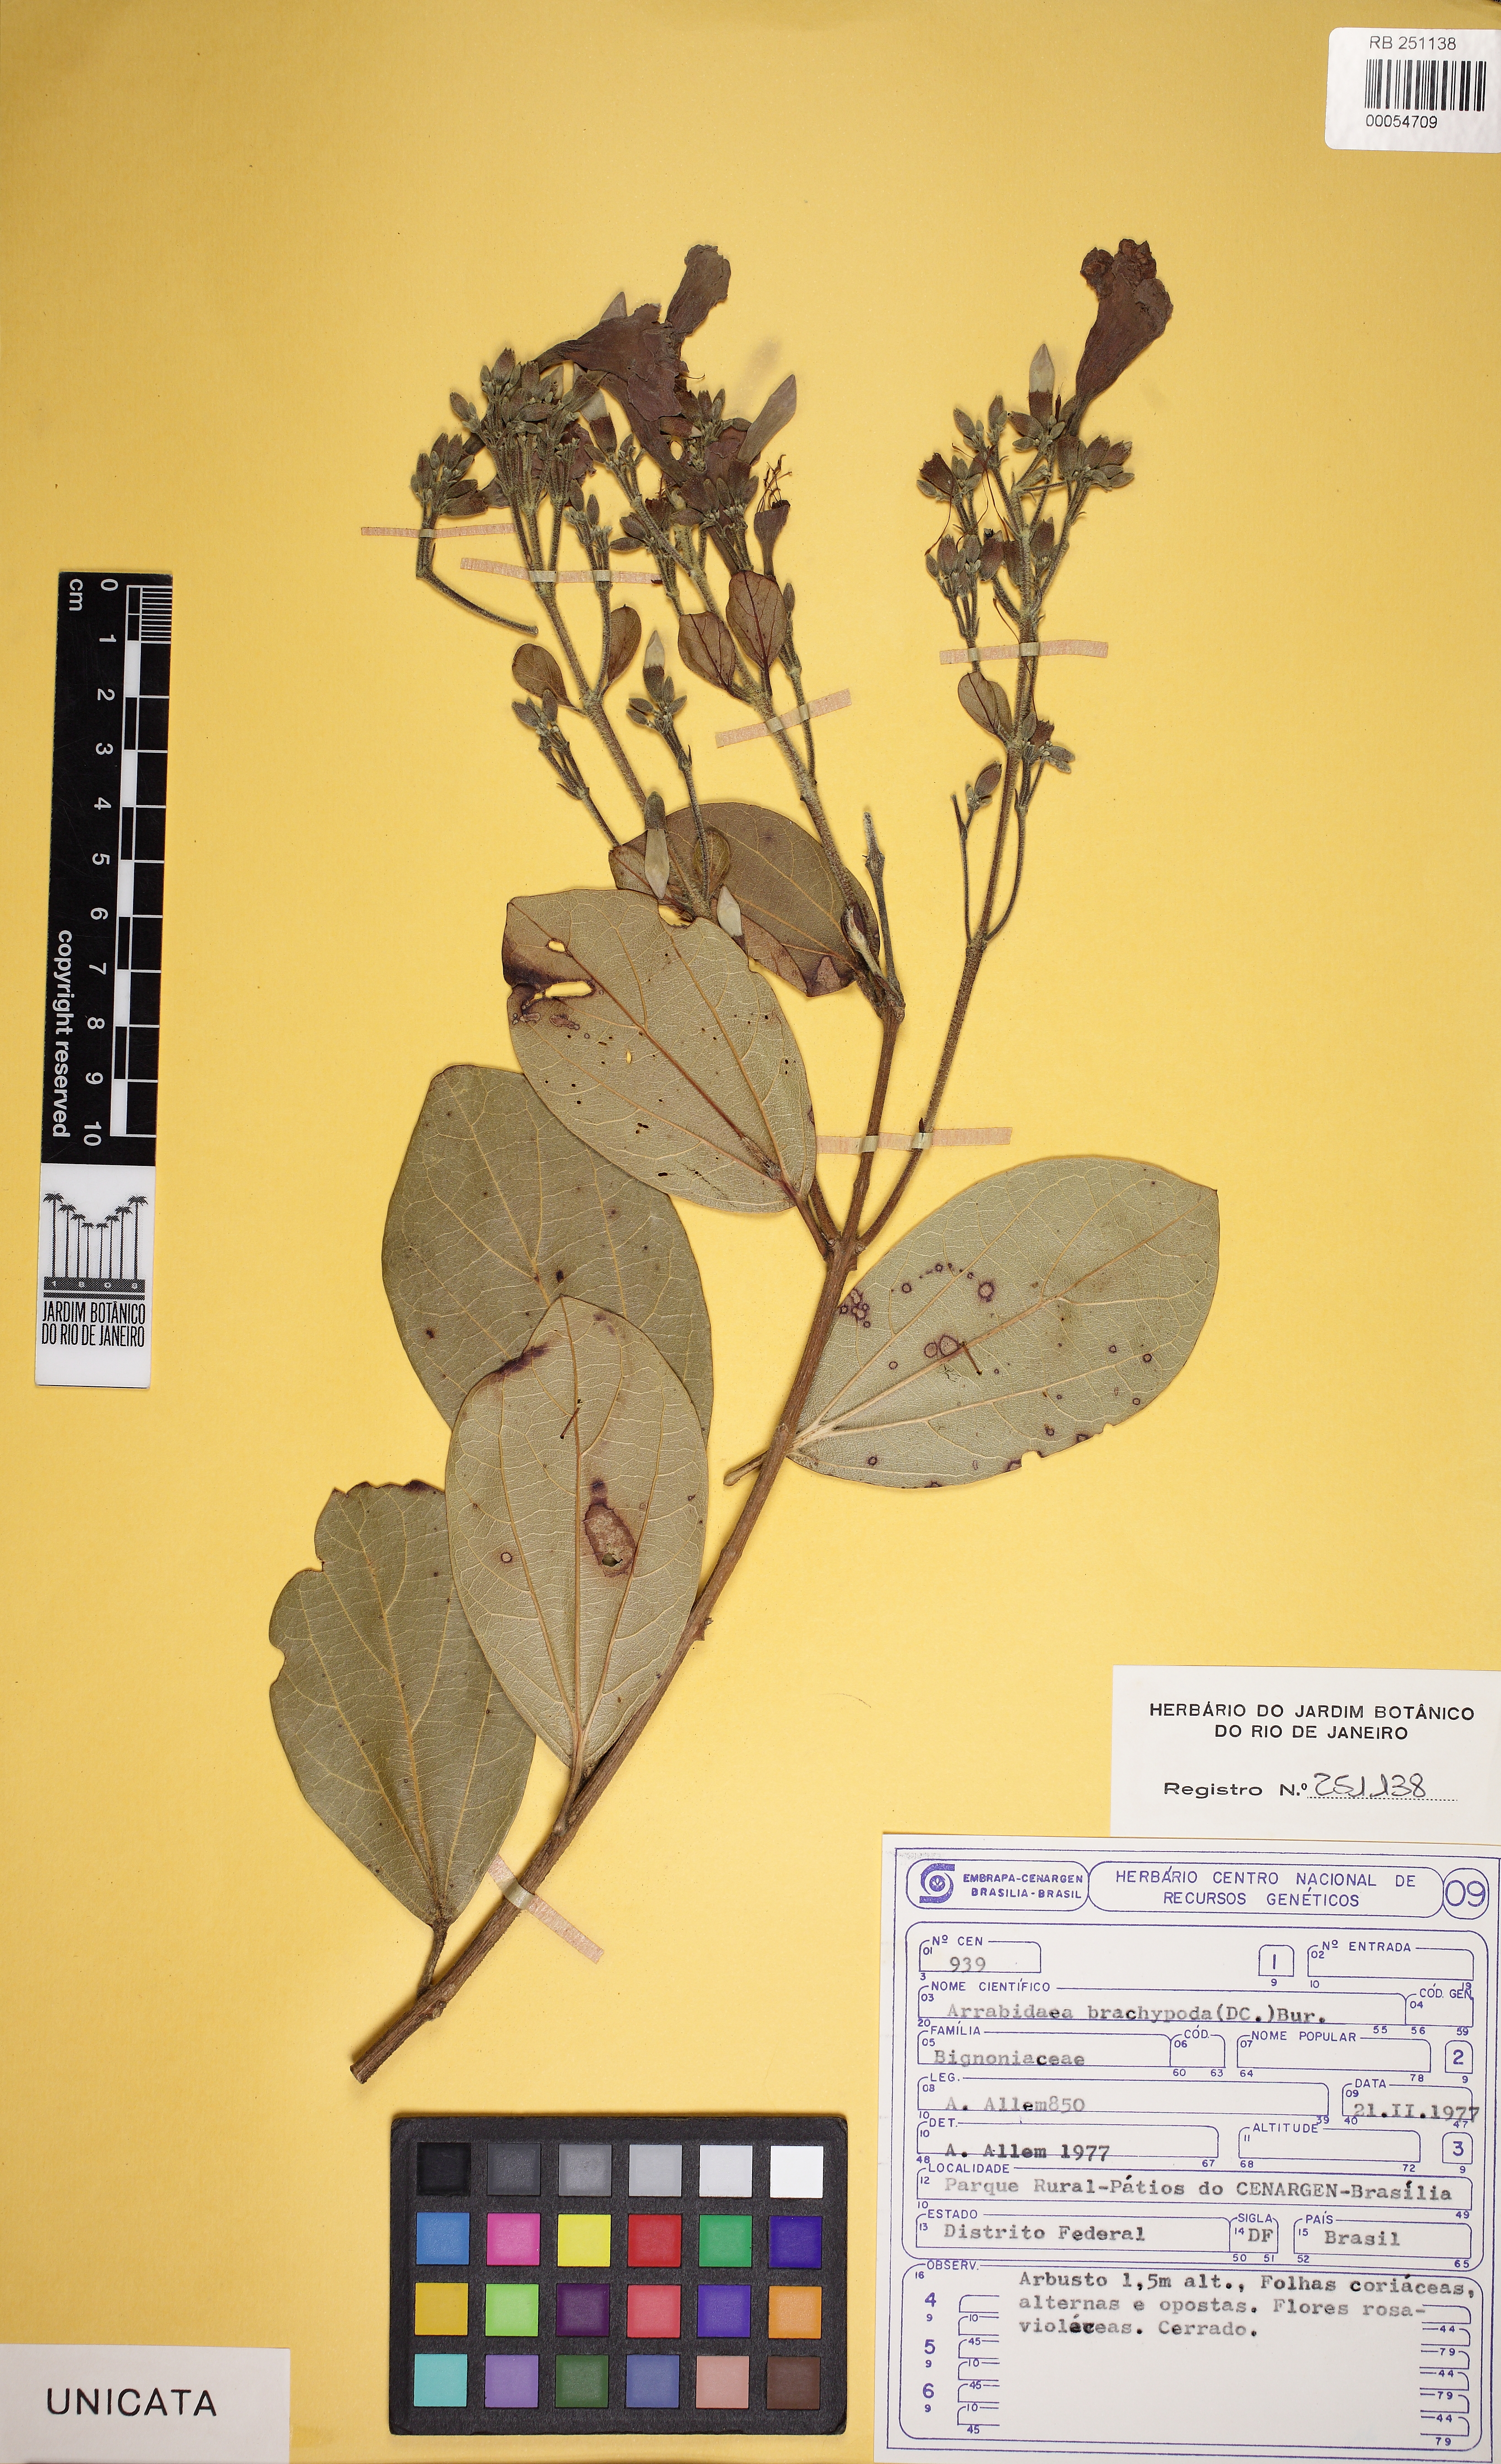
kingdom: Plantae
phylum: Tracheophyta
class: Magnoliopsida
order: Lamiales
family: Bignoniaceae
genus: Fridericia
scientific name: Fridericia platyphylla
